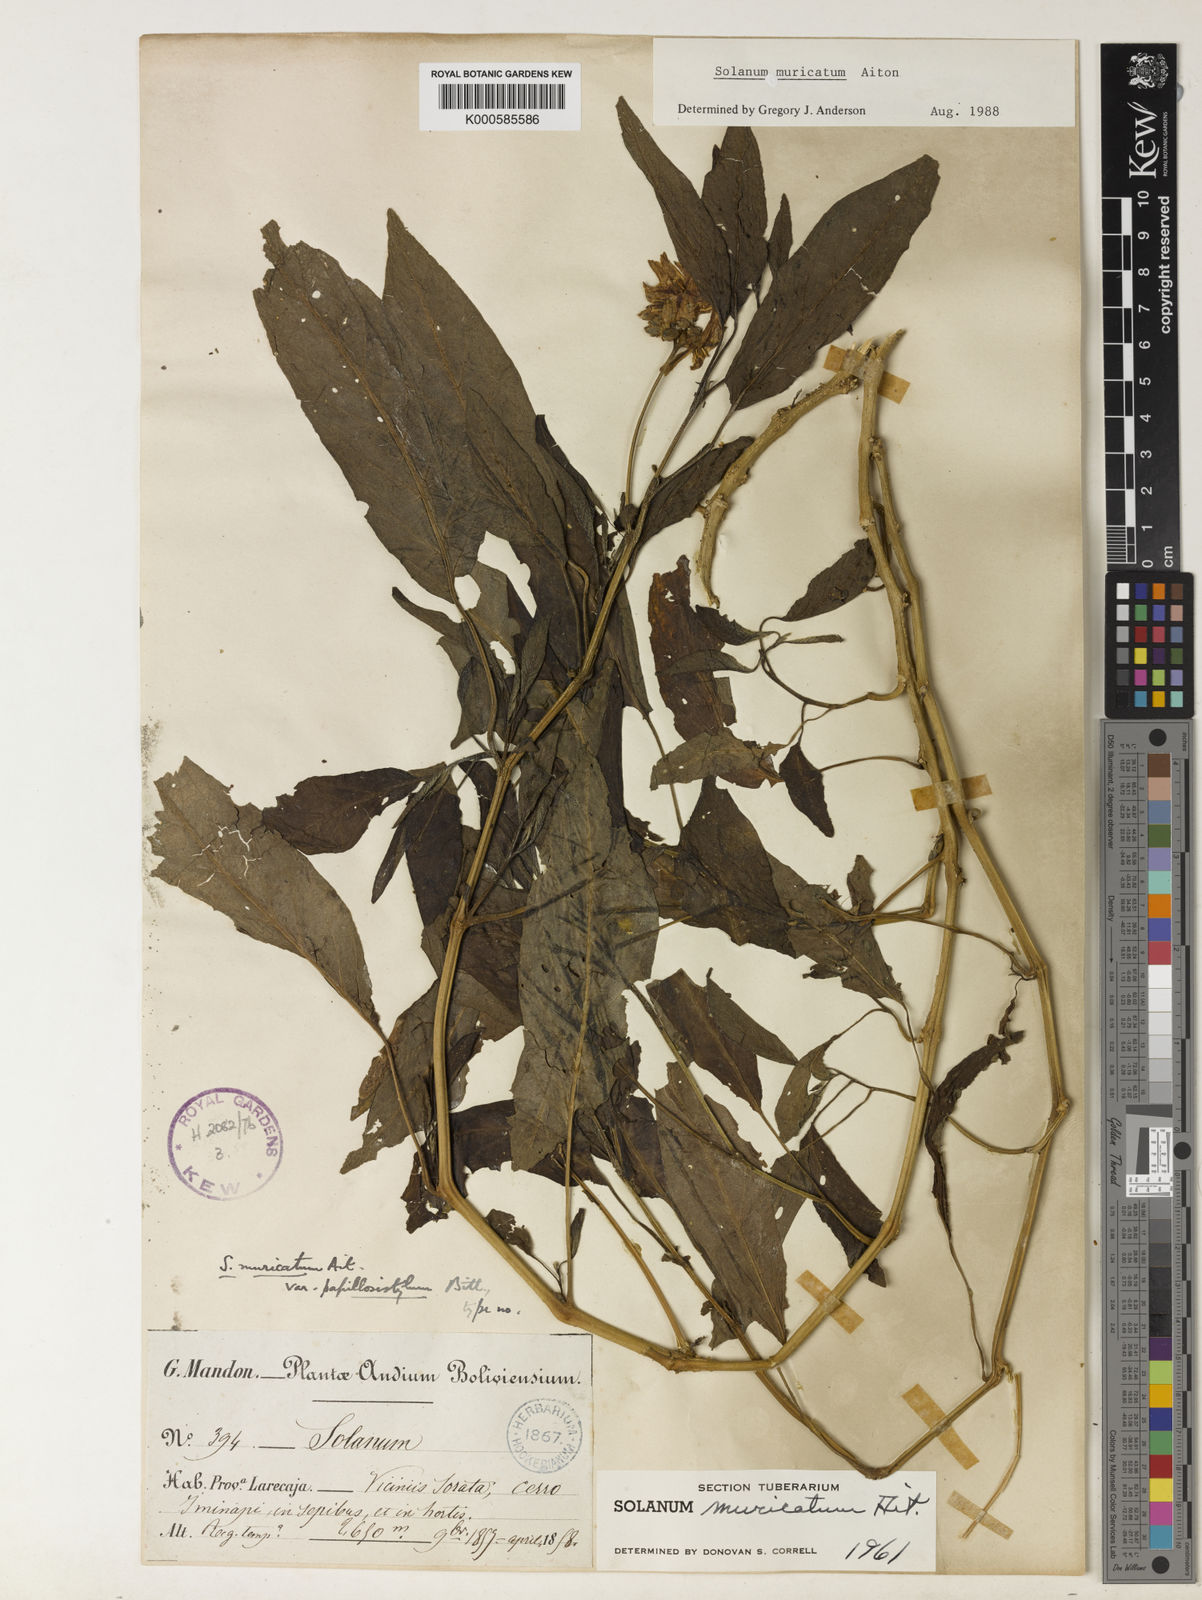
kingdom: Plantae
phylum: Tracheophyta
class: Magnoliopsida
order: Solanales
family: Solanaceae
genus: Solanum
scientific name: Solanum muricatum
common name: Peruvian pepino
